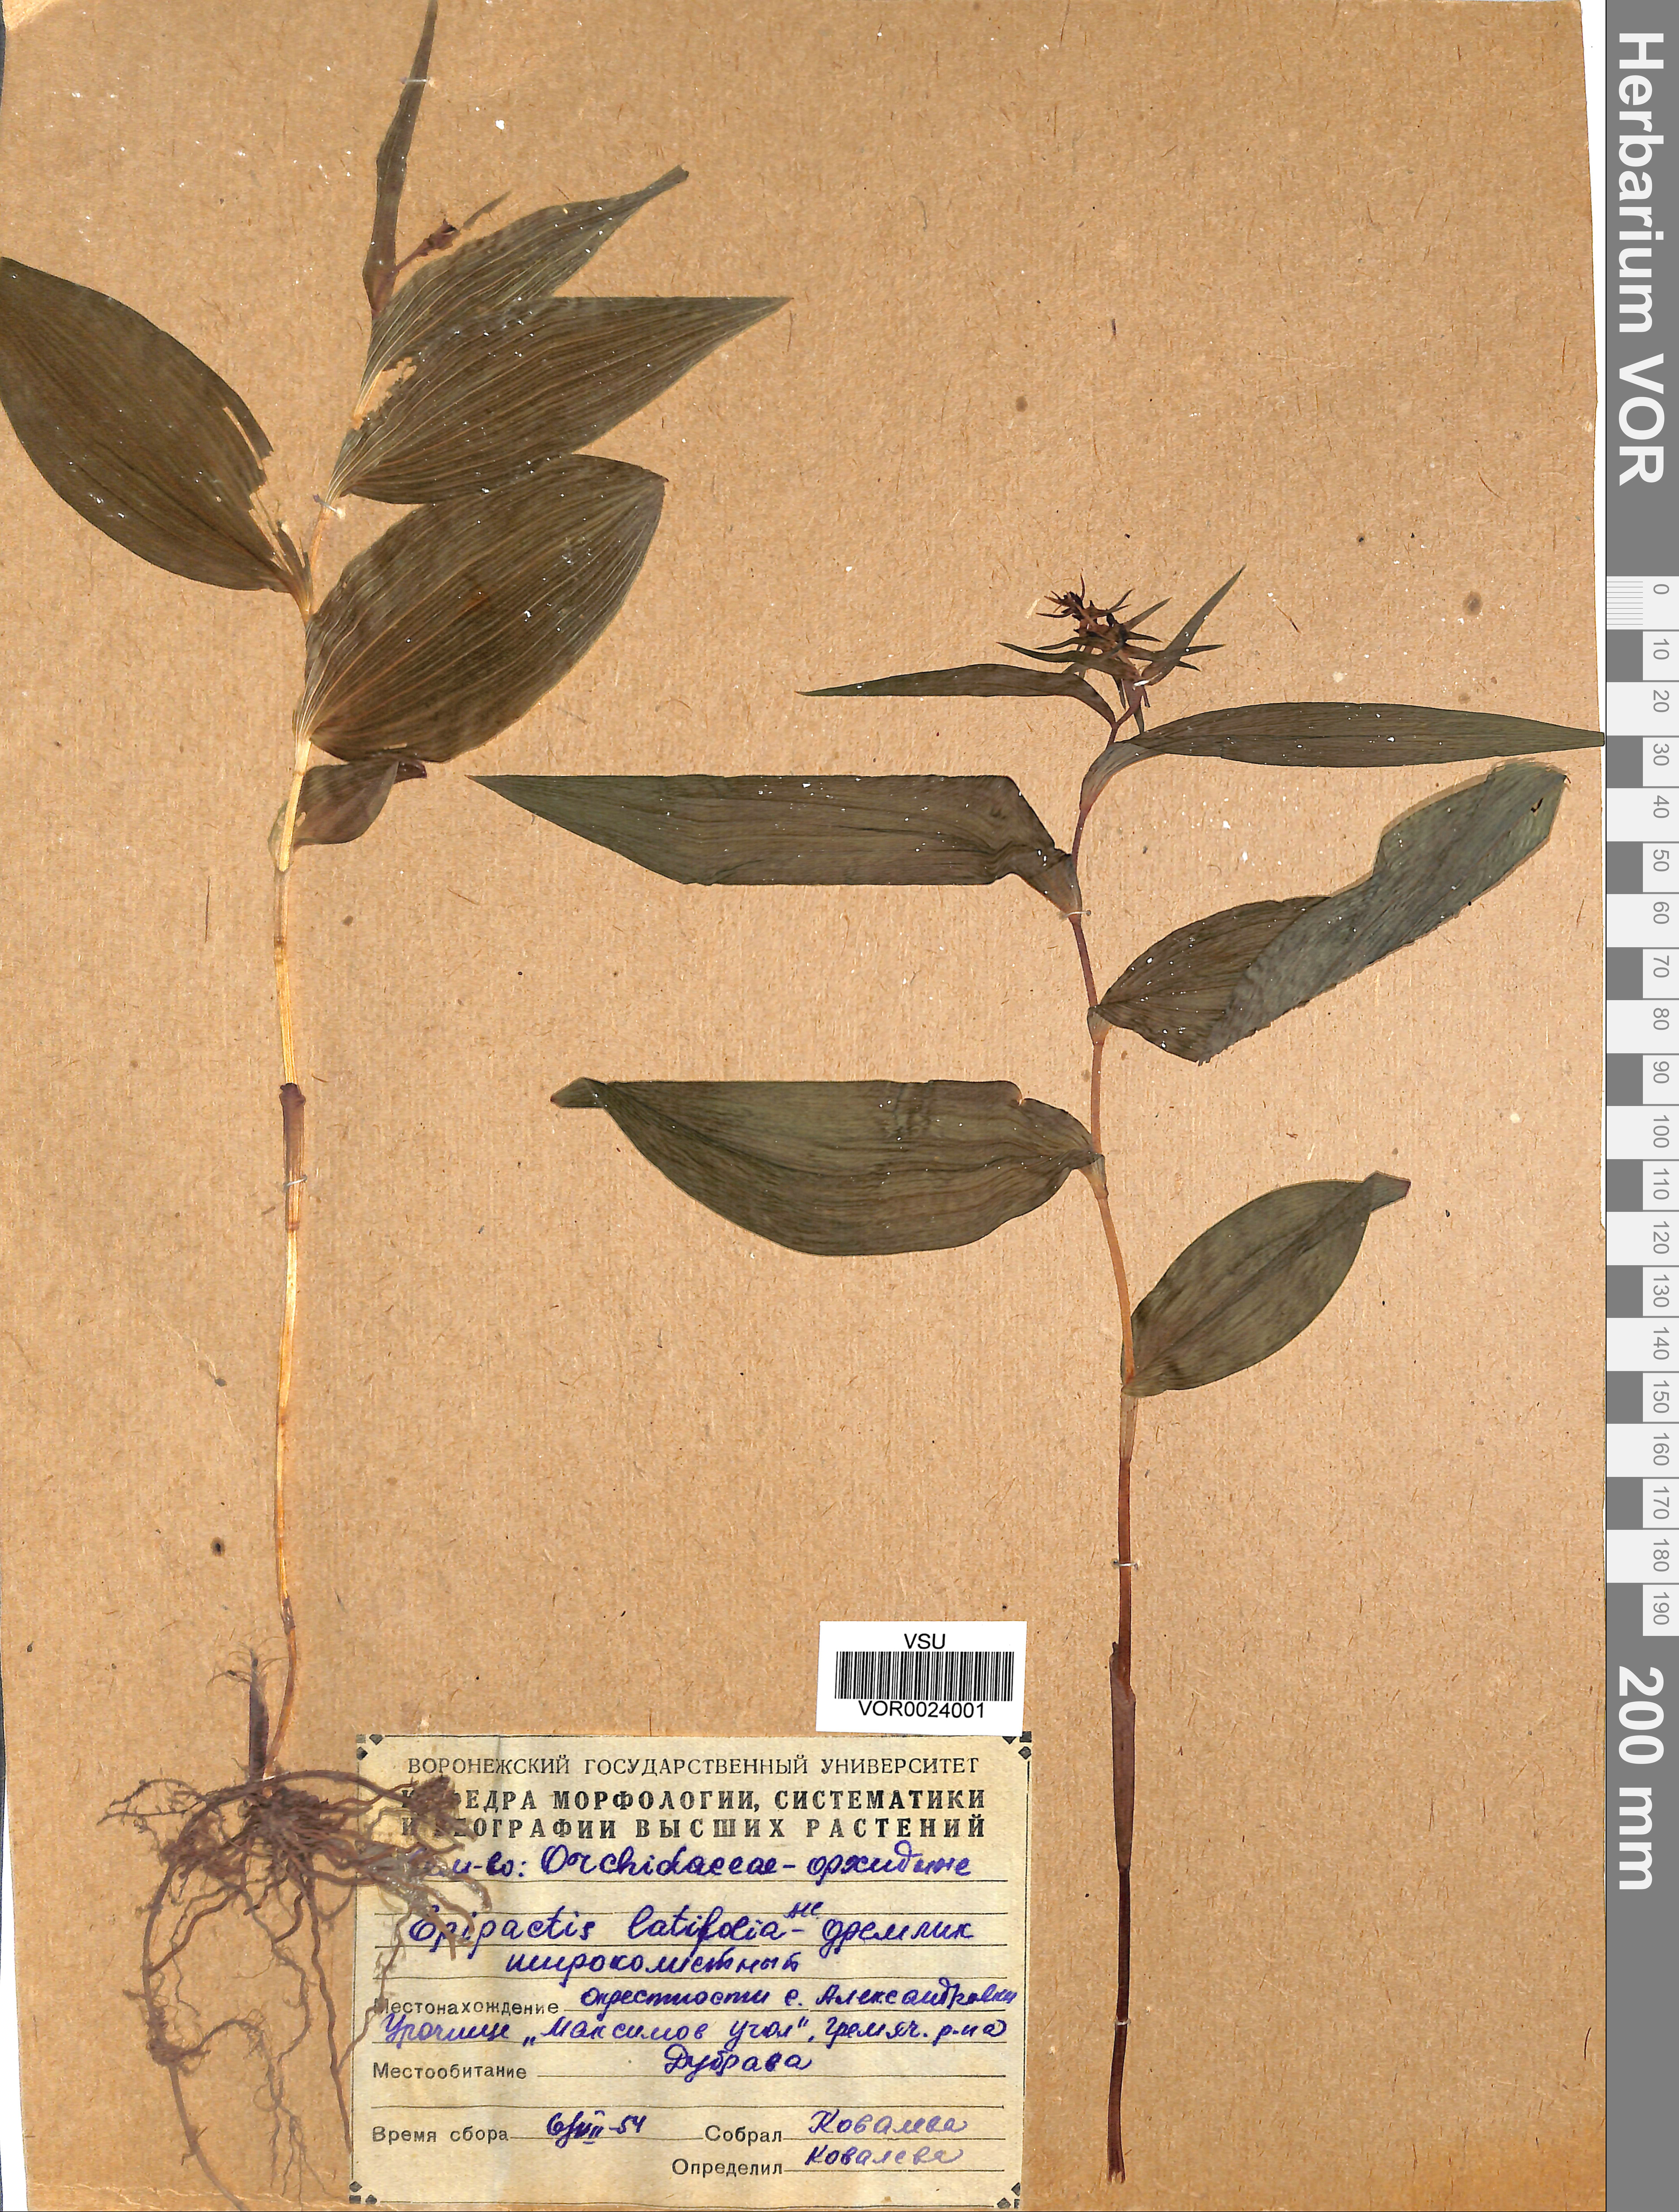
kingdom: Plantae
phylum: Tracheophyta
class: Liliopsida
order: Asparagales
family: Orchidaceae
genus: Epipactis
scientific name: Epipactis helleborine
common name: Broad-leaved helleborine
